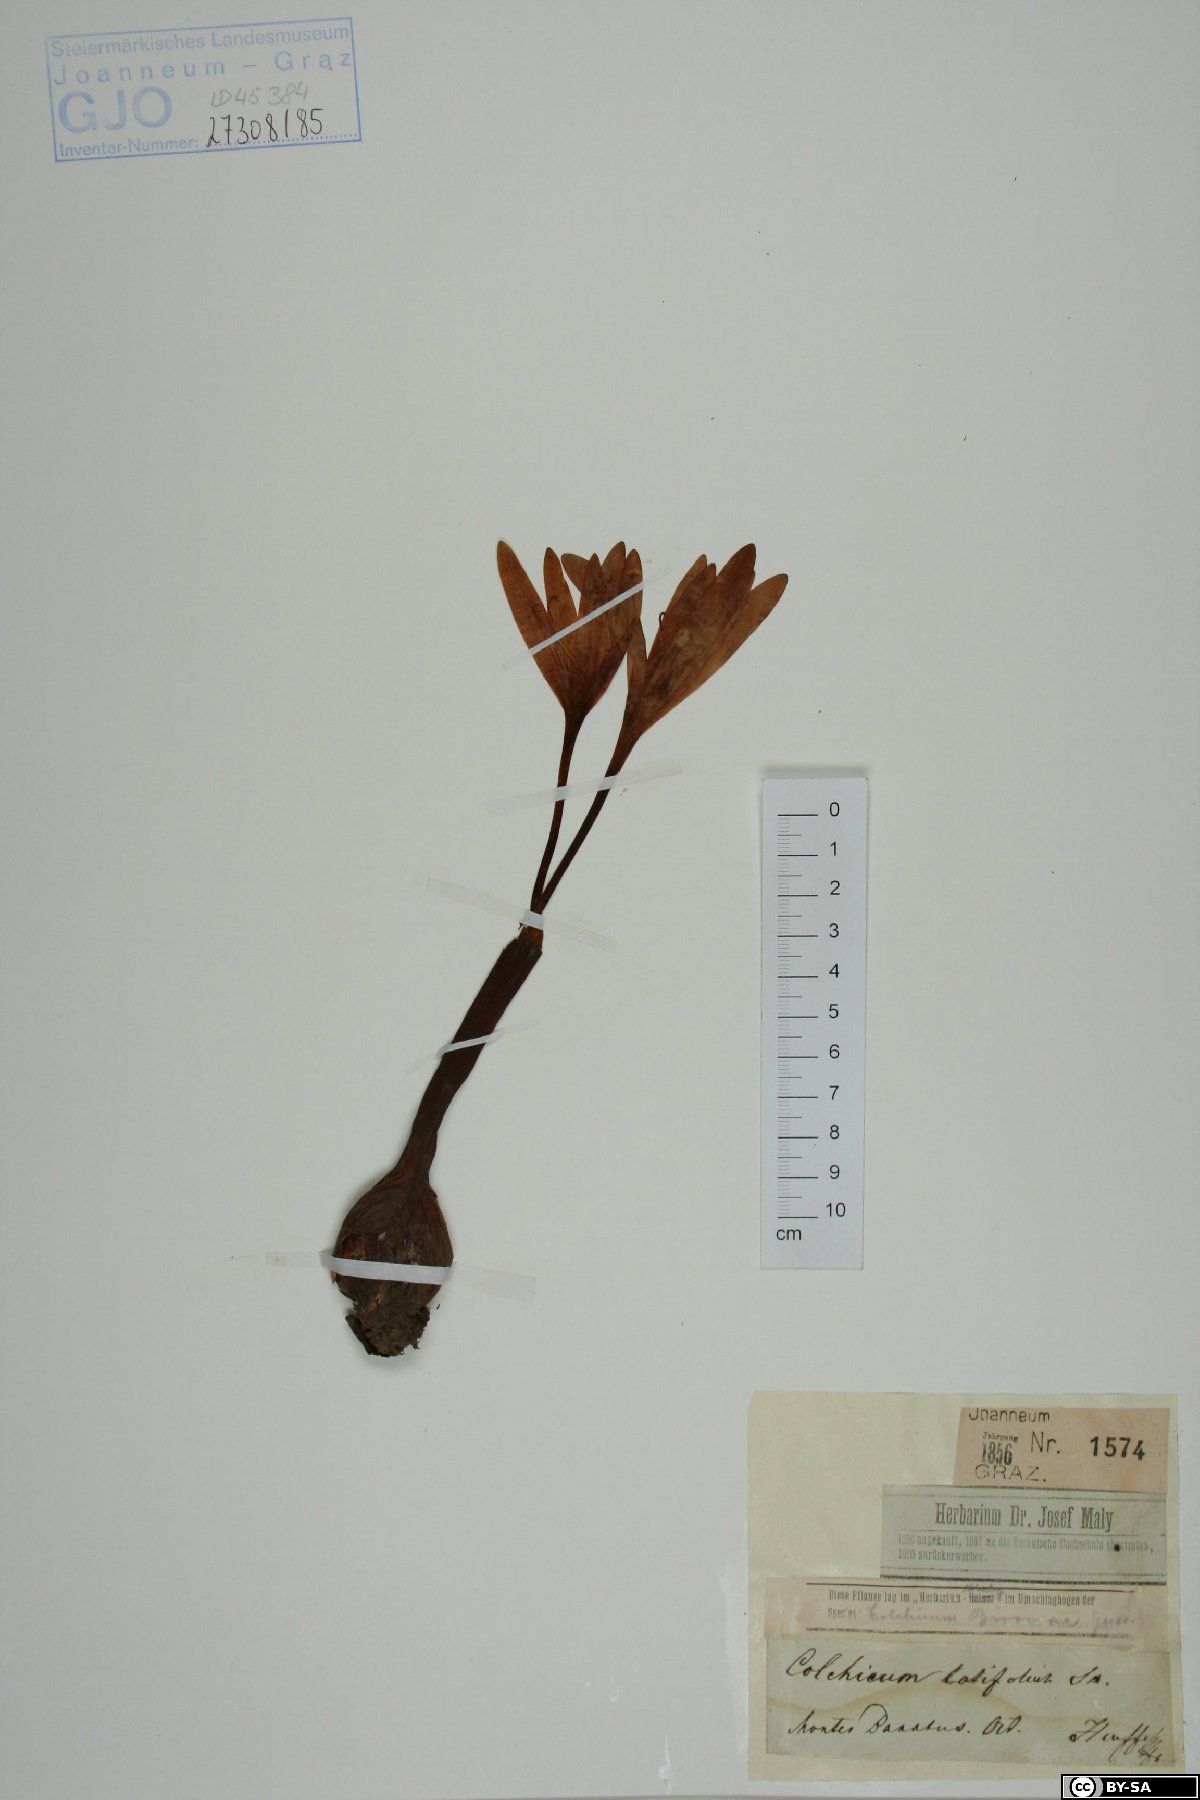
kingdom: Plantae
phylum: Tracheophyta
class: Liliopsida
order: Liliales
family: Colchicaceae
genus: Colchicum
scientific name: Colchicum bivonae
